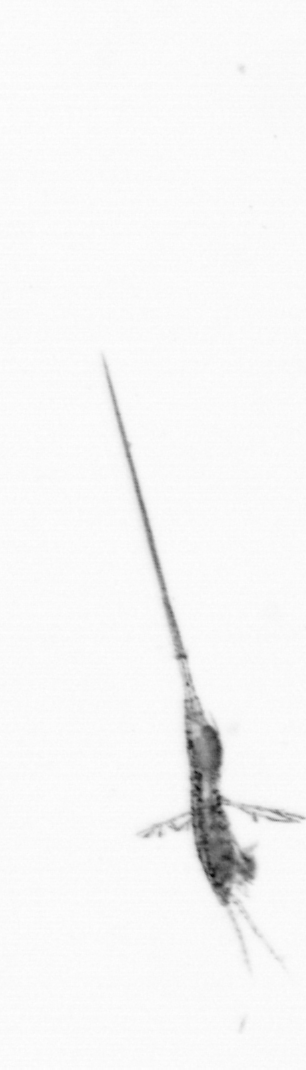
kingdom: Animalia
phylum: Arthropoda
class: Copepoda
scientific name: Copepoda
